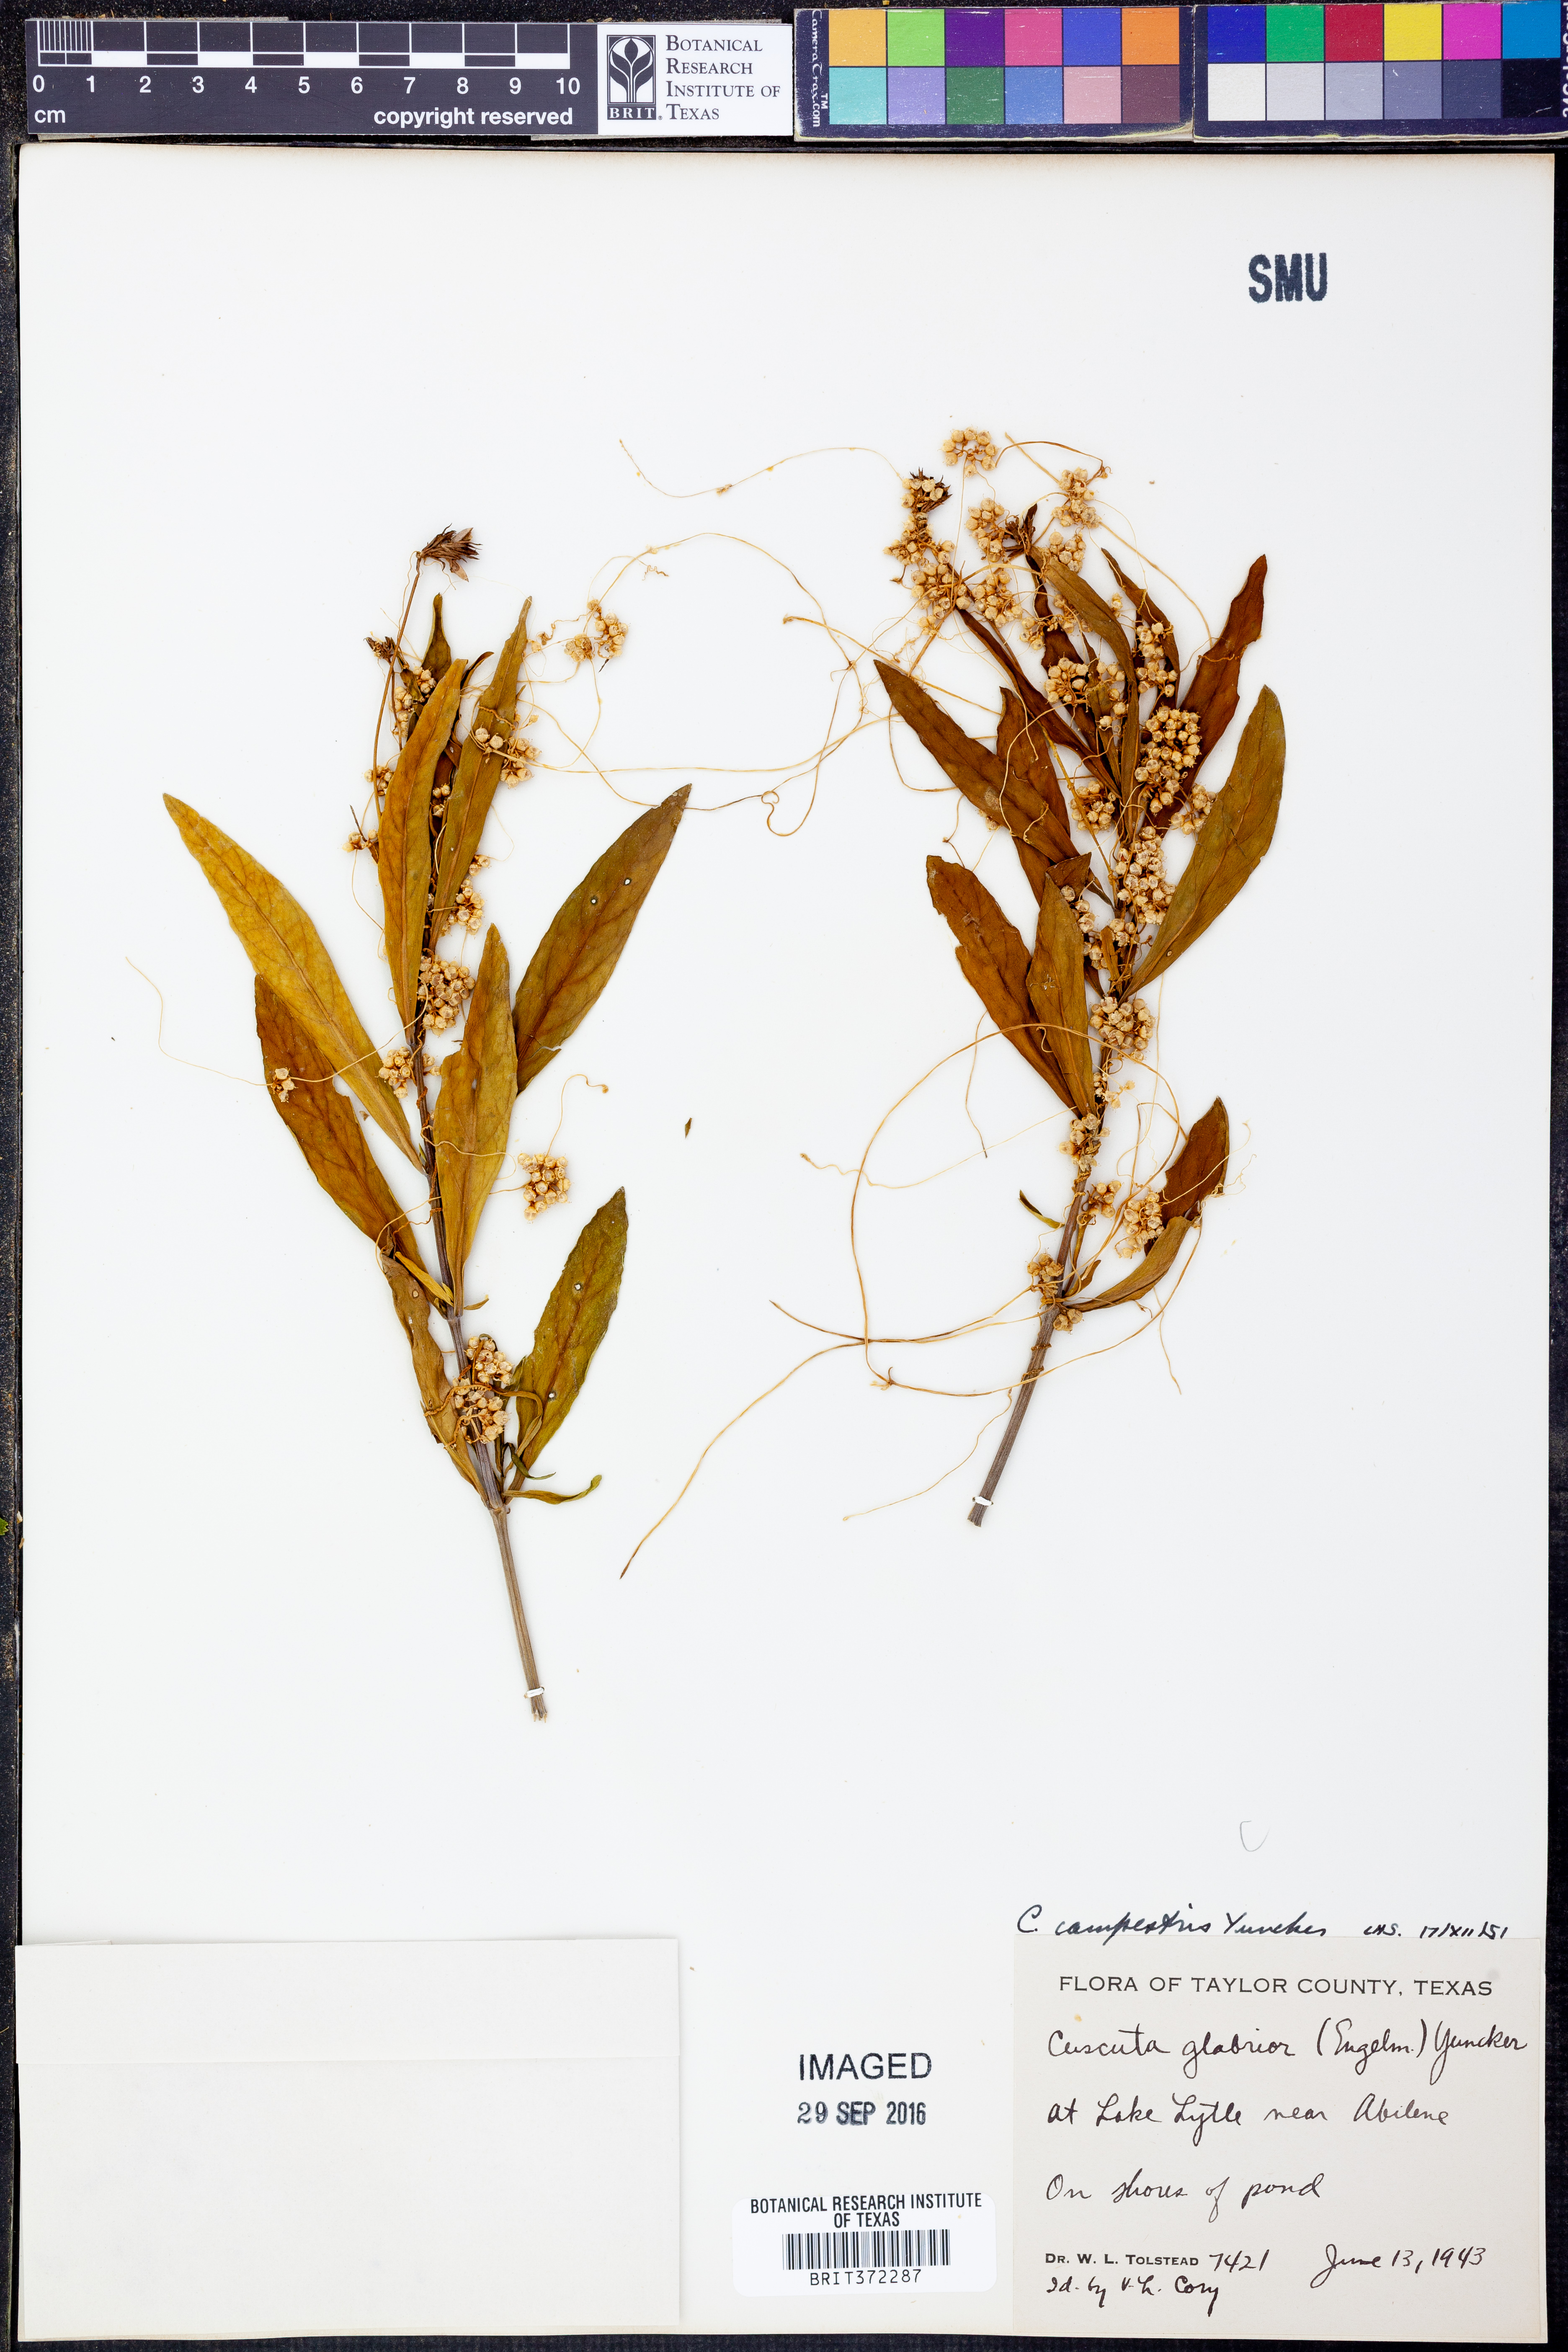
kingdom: Plantae
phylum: Tracheophyta
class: Magnoliopsida
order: Solanales
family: Convolvulaceae
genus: Cuscuta
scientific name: Cuscuta campestris
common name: Yellow dodder
